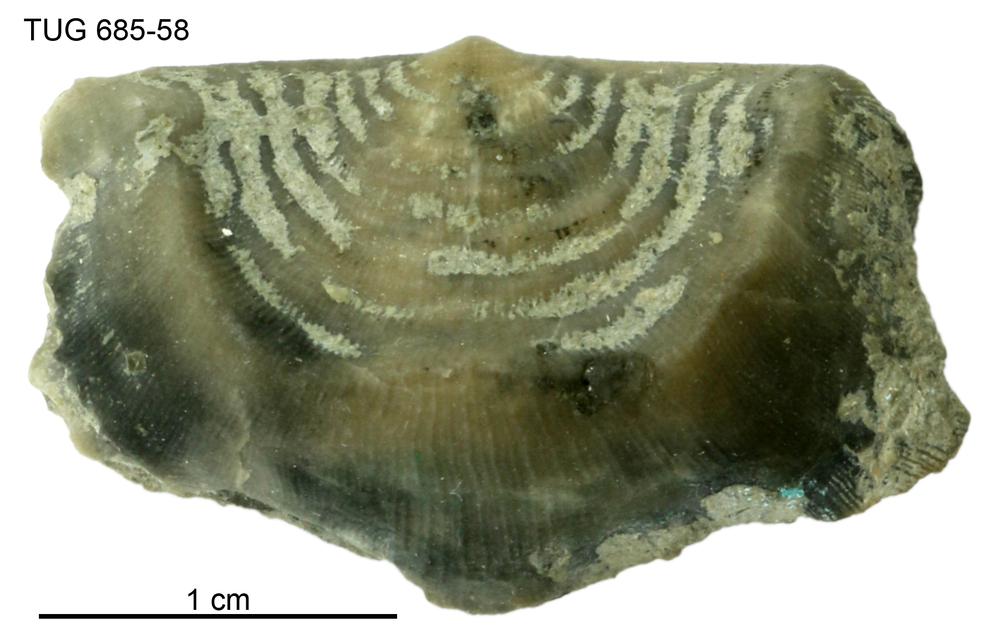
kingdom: Animalia
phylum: Brachiopoda
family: Strophomenidae
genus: Leptaena
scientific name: Leptaena Similoleptaena paucirugata
